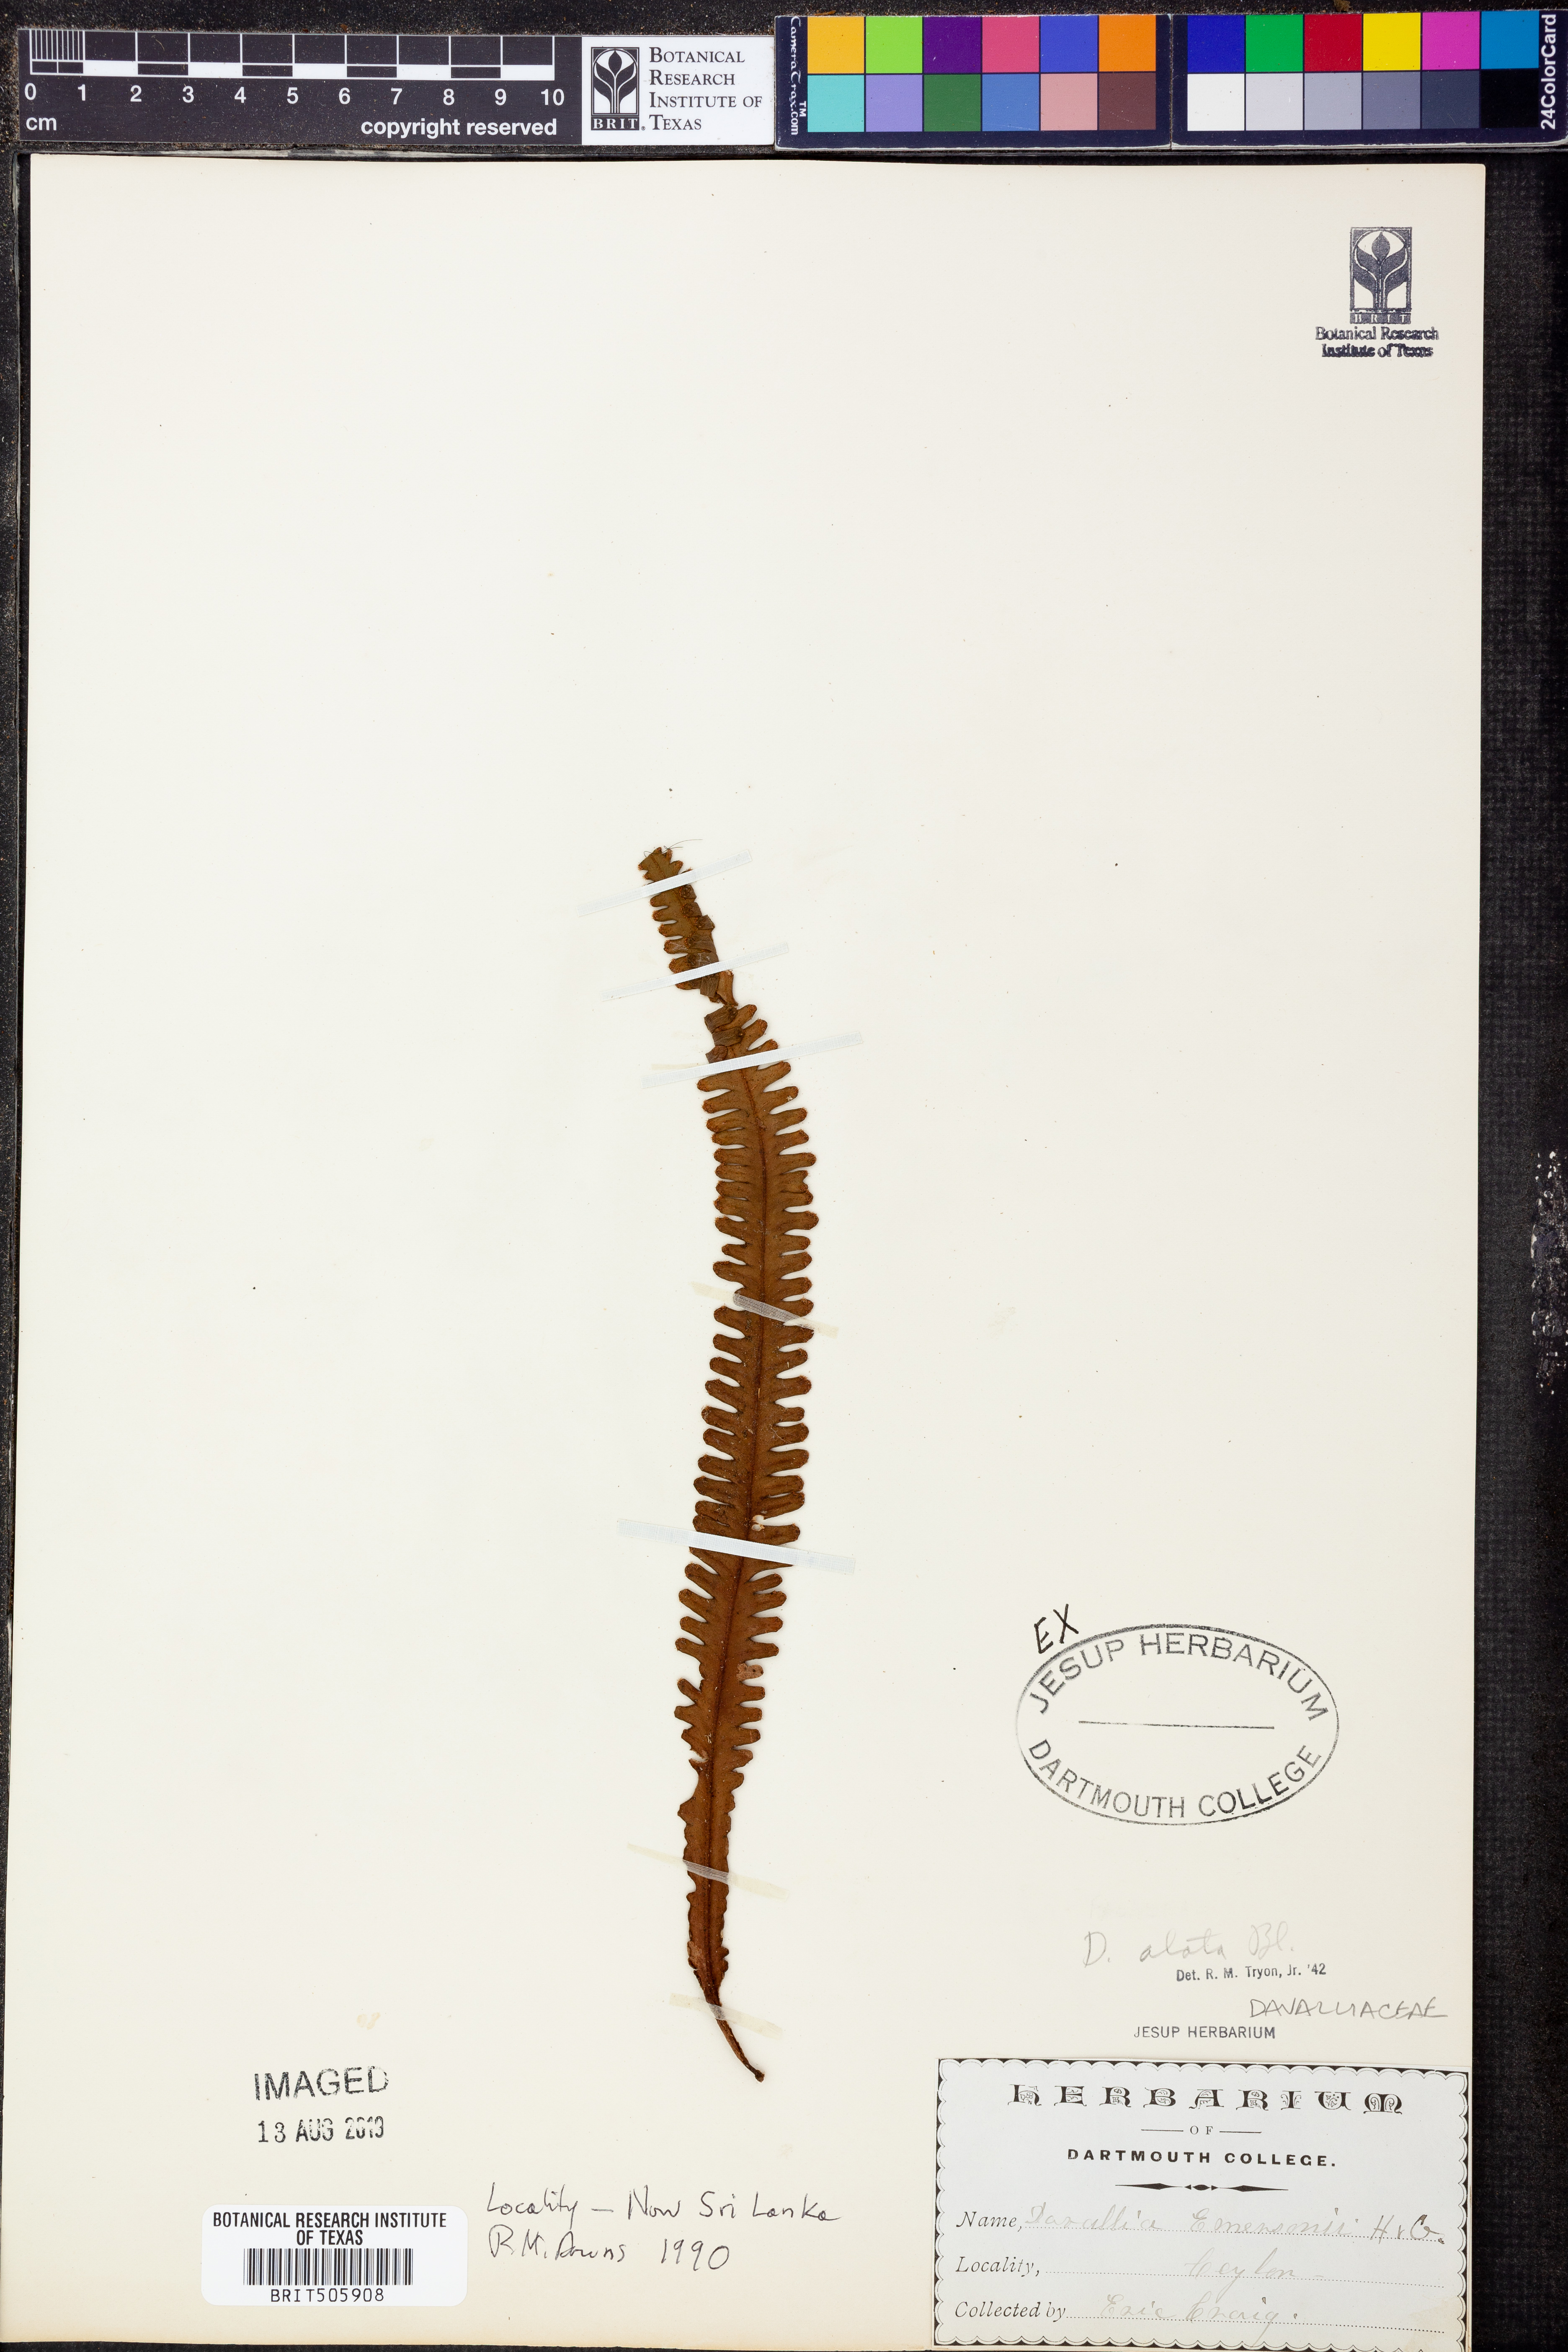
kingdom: Plantae
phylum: Tracheophyta
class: Polypodiopsida
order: Polypodiales
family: Polypodiaceae
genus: Prosaptia
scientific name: Prosaptia alata
